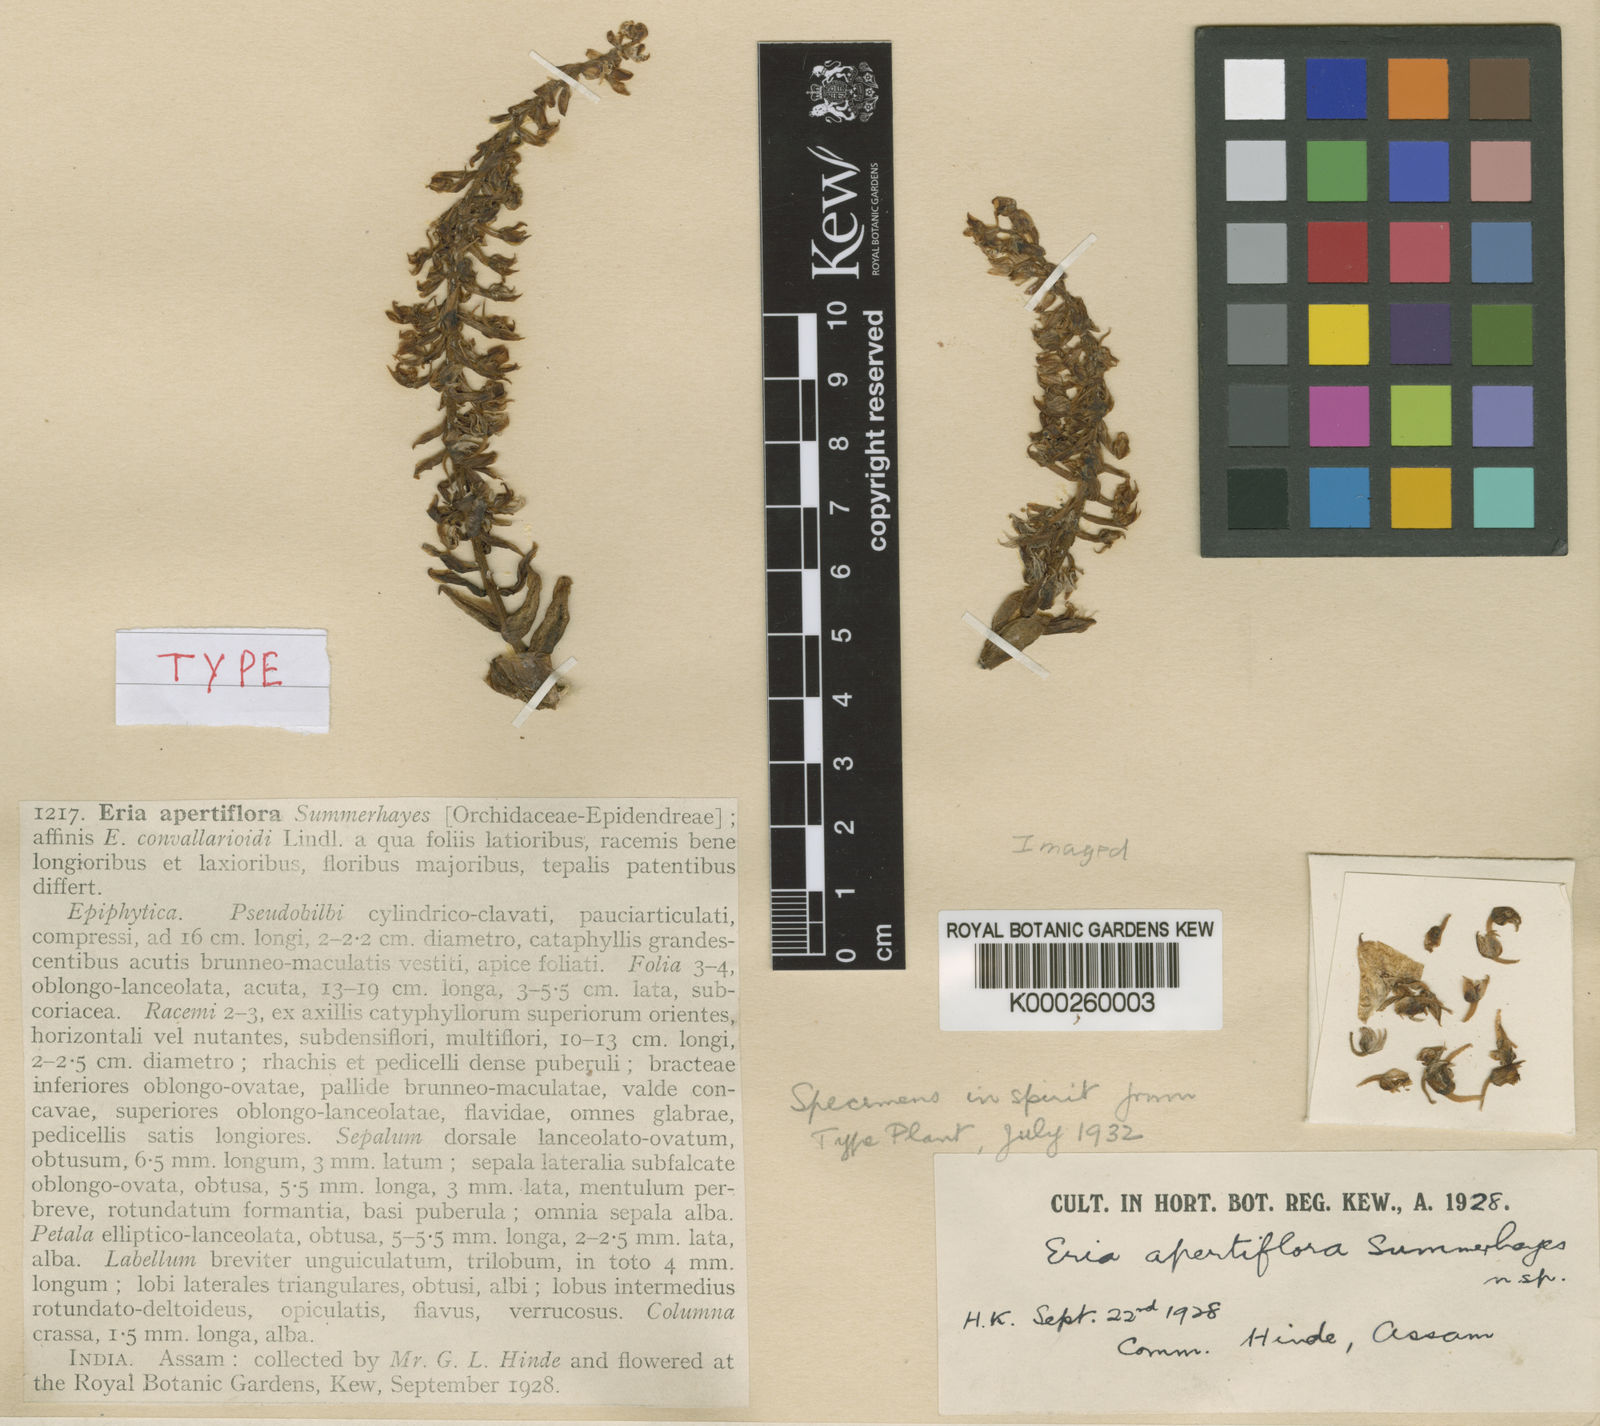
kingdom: Plantae
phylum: Tracheophyta
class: Liliopsida
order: Asparagales
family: Orchidaceae
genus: Pinalia
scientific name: Pinalia apertiflora
